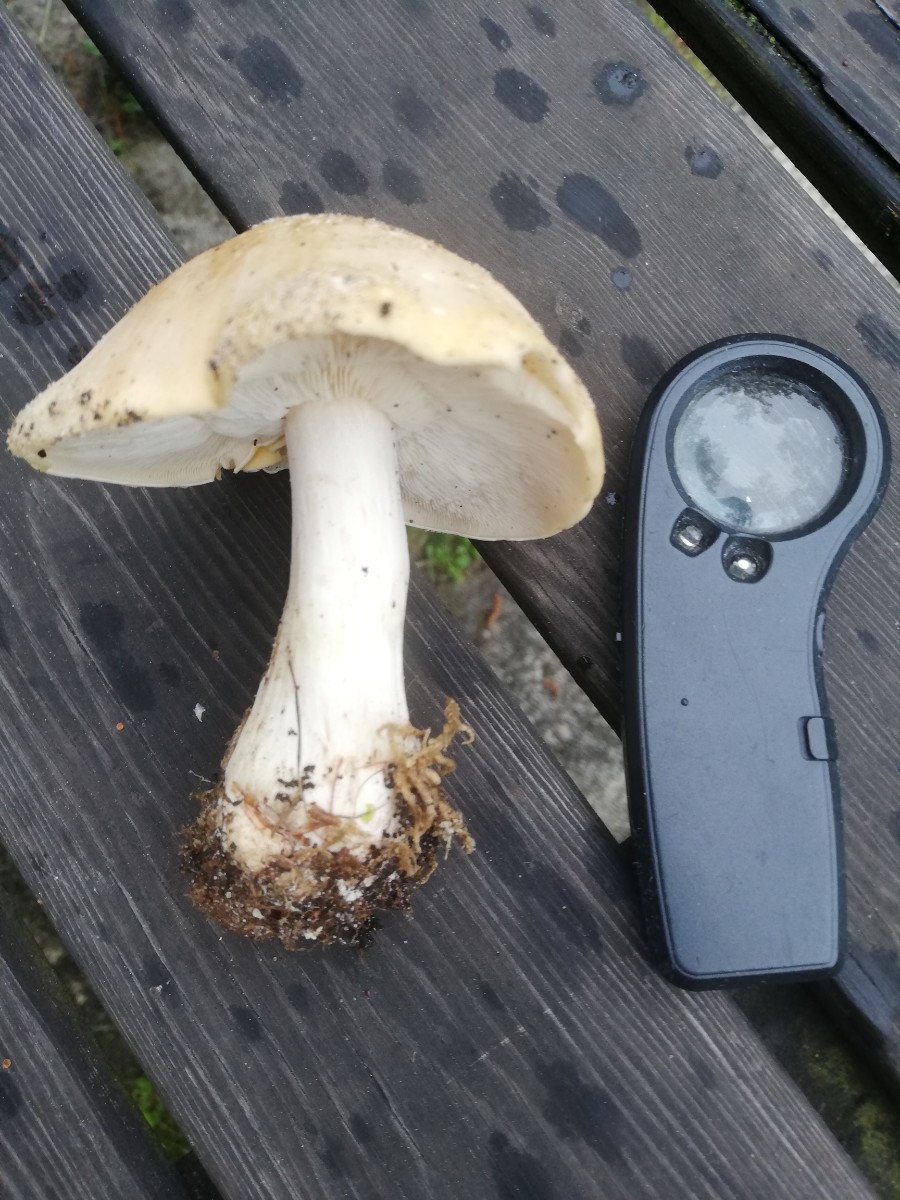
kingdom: Fungi
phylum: Basidiomycota
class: Agaricomycetes
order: Agaricales
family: Lyophyllaceae
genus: Calocybe
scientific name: Calocybe gambosa
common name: vårmusseron
